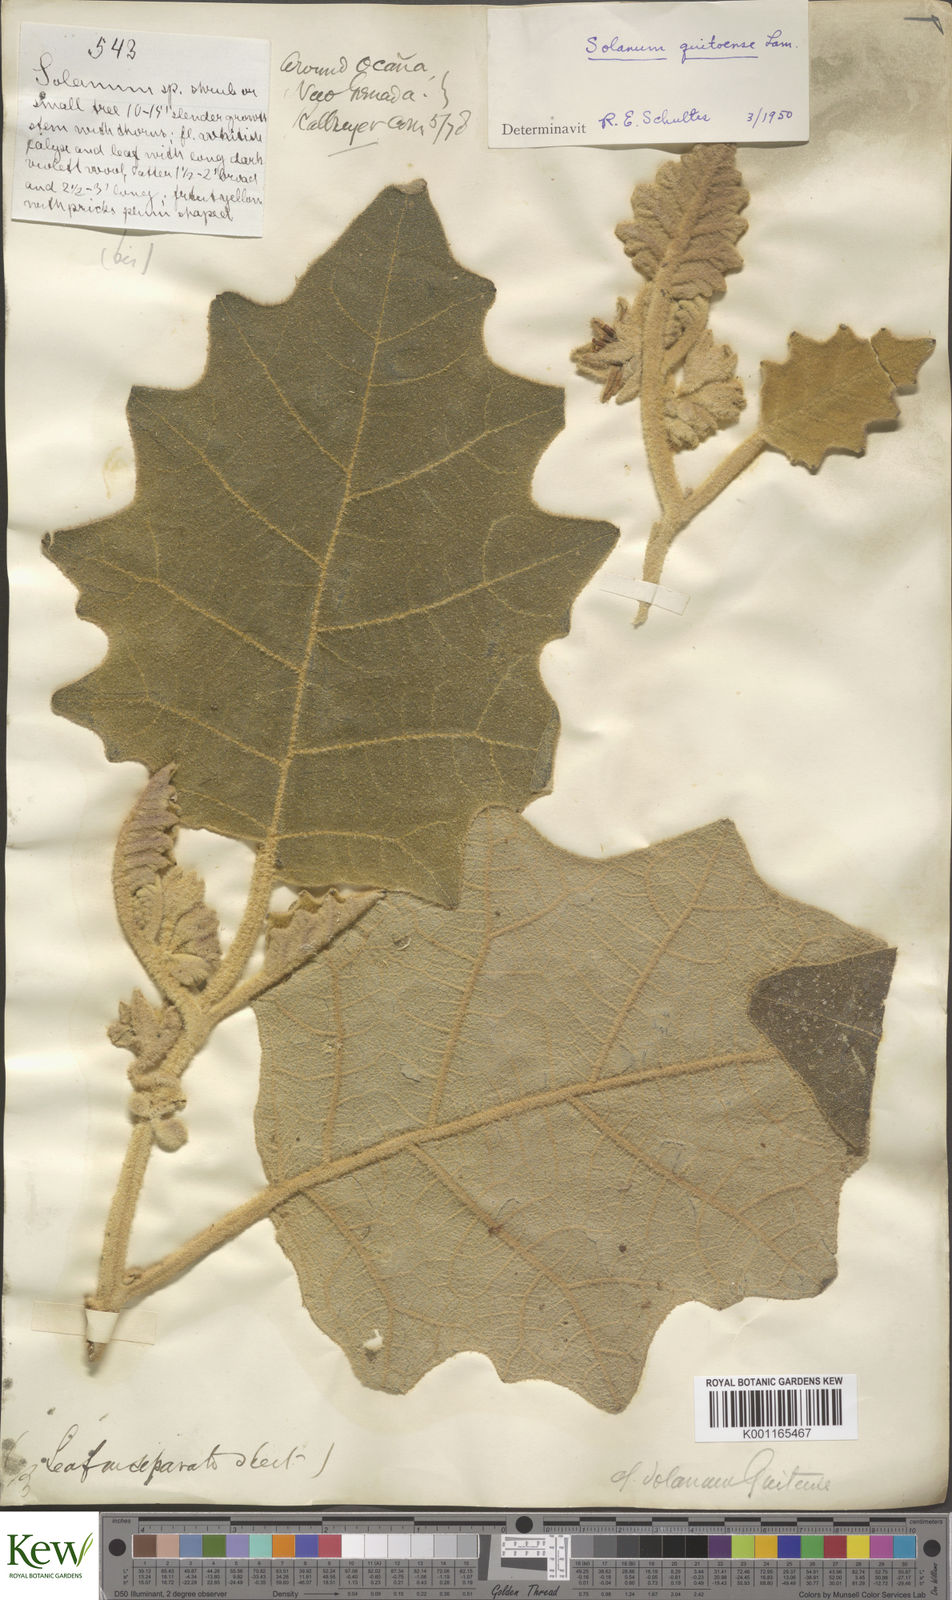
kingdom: Plantae
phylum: Tracheophyta
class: Magnoliopsida
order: Solanales
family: Solanaceae
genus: Solanum
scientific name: Solanum quitoense
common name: Quito-orange
